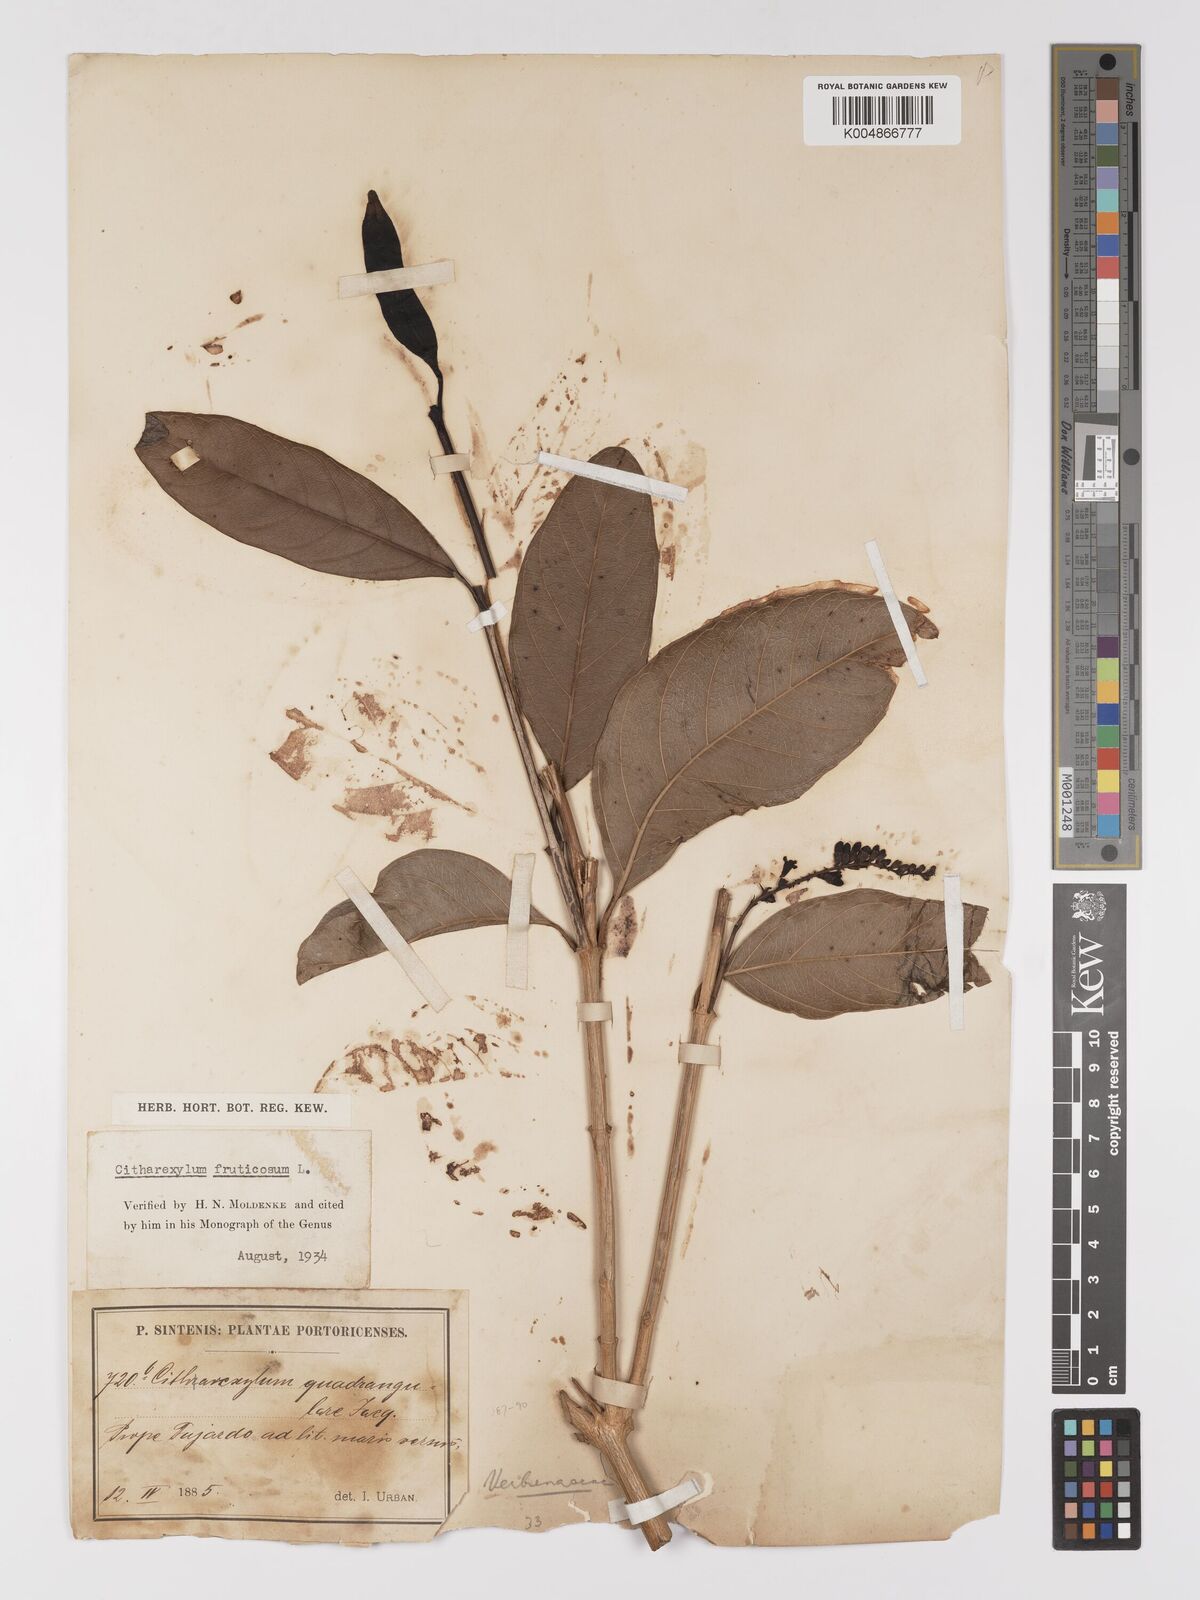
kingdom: Plantae
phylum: Tracheophyta
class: Magnoliopsida
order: Lamiales
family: Verbenaceae
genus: Citharexylum
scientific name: Citharexylum spinosum
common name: Fiddlewood
